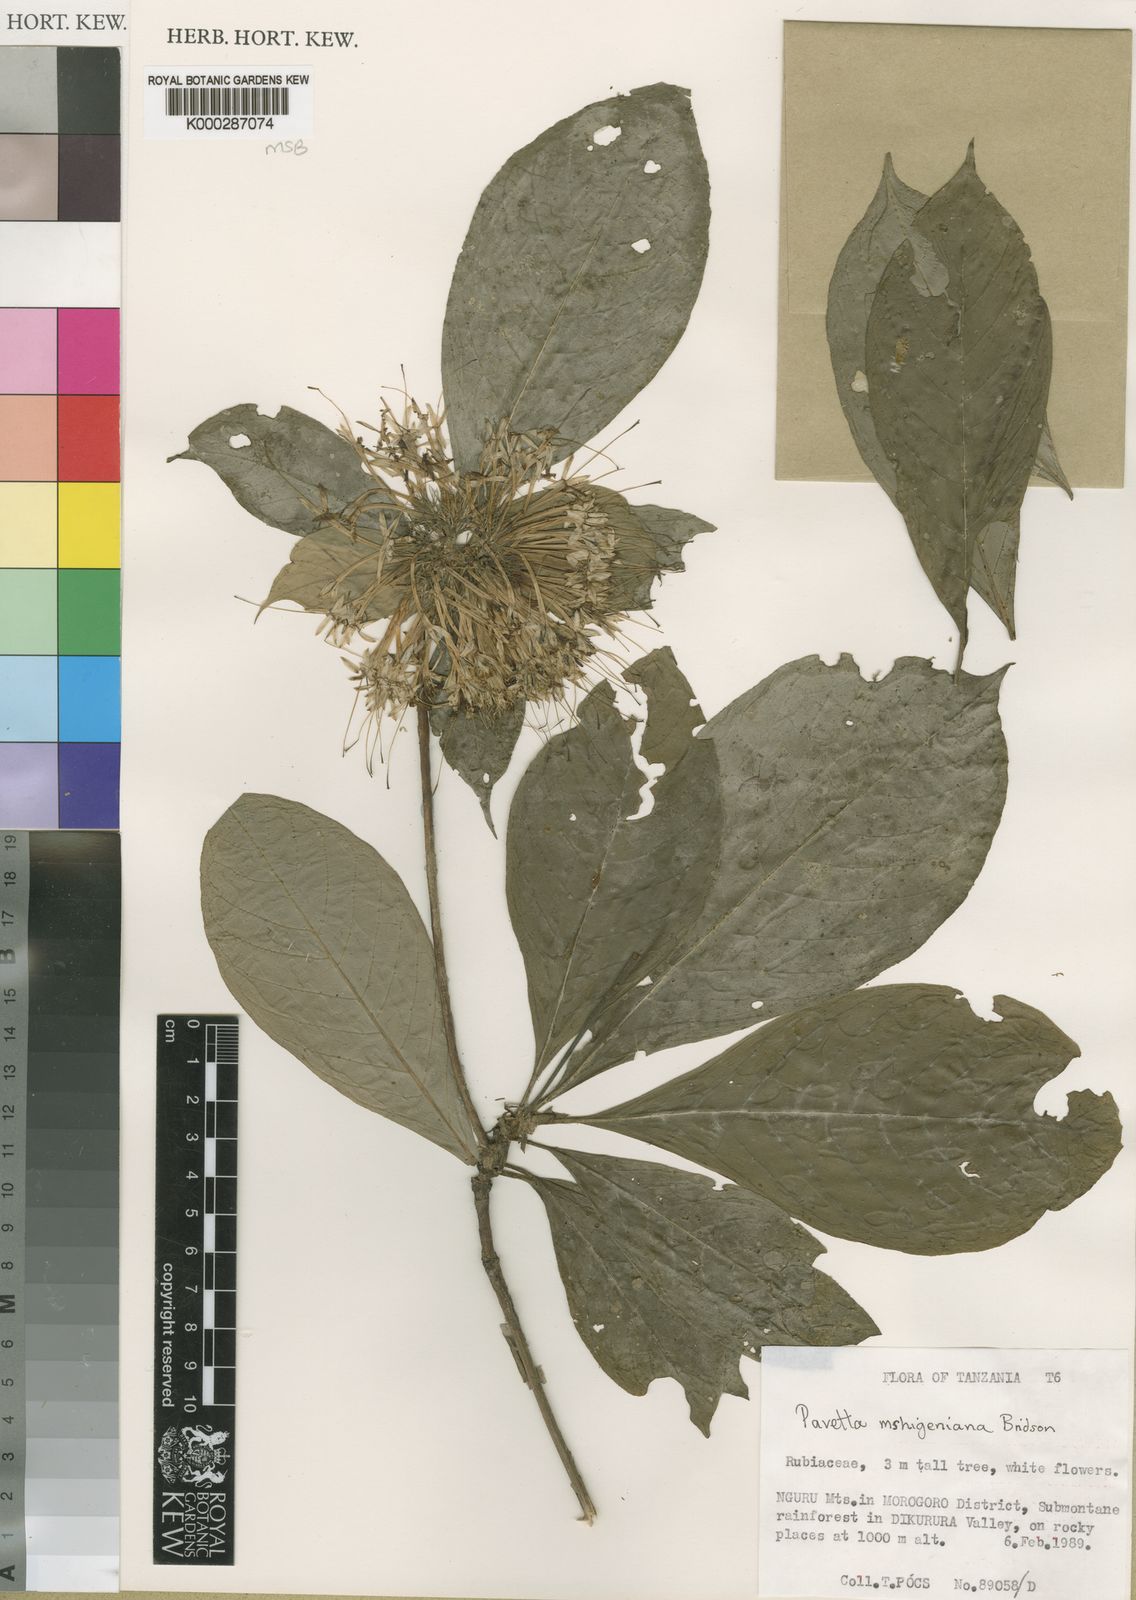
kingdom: Plantae
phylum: Tracheophyta
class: Magnoliopsida
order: Gentianales
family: Rubiaceae
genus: Pavetta
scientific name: Pavetta mshigeniana
